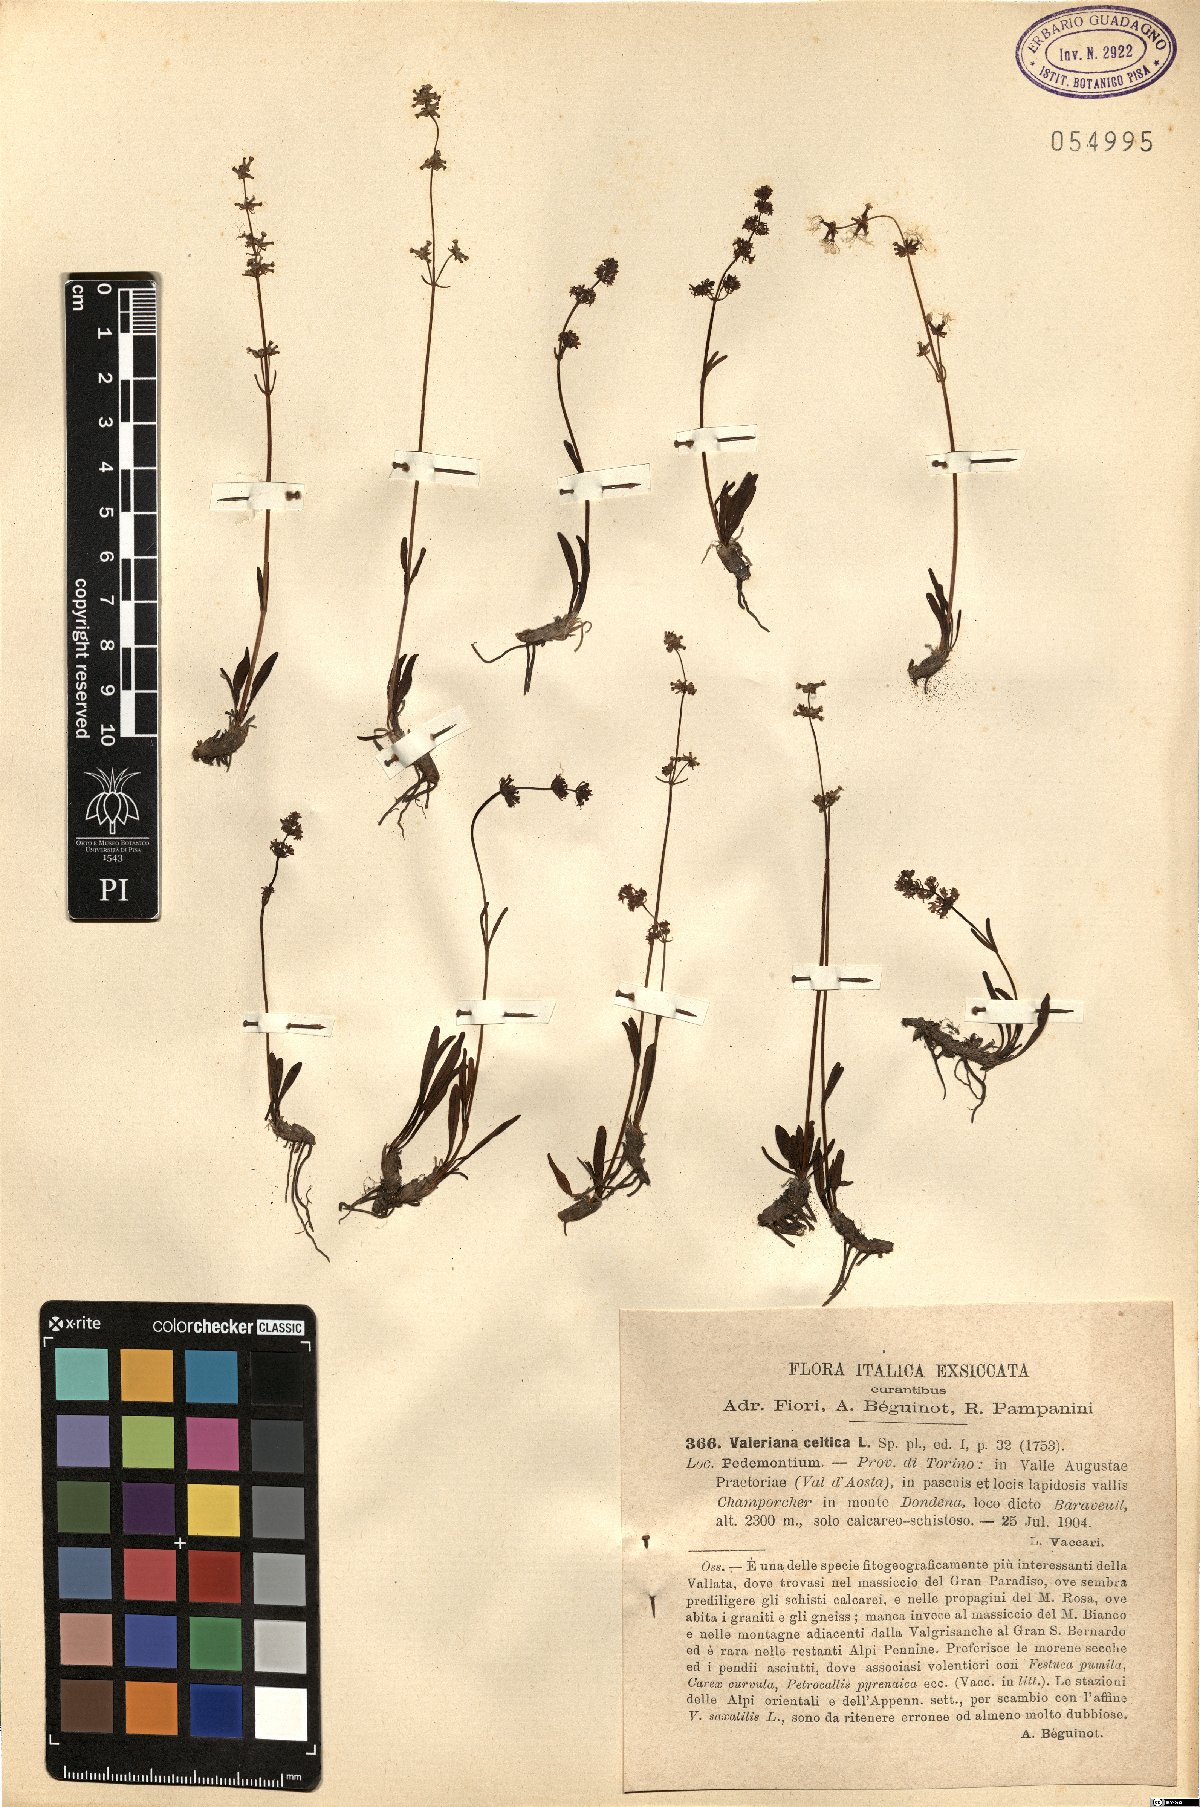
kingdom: Plantae
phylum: Tracheophyta
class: Magnoliopsida
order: Dipsacales
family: Caprifoliaceae
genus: Valeriana
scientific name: Valeriana celtica
